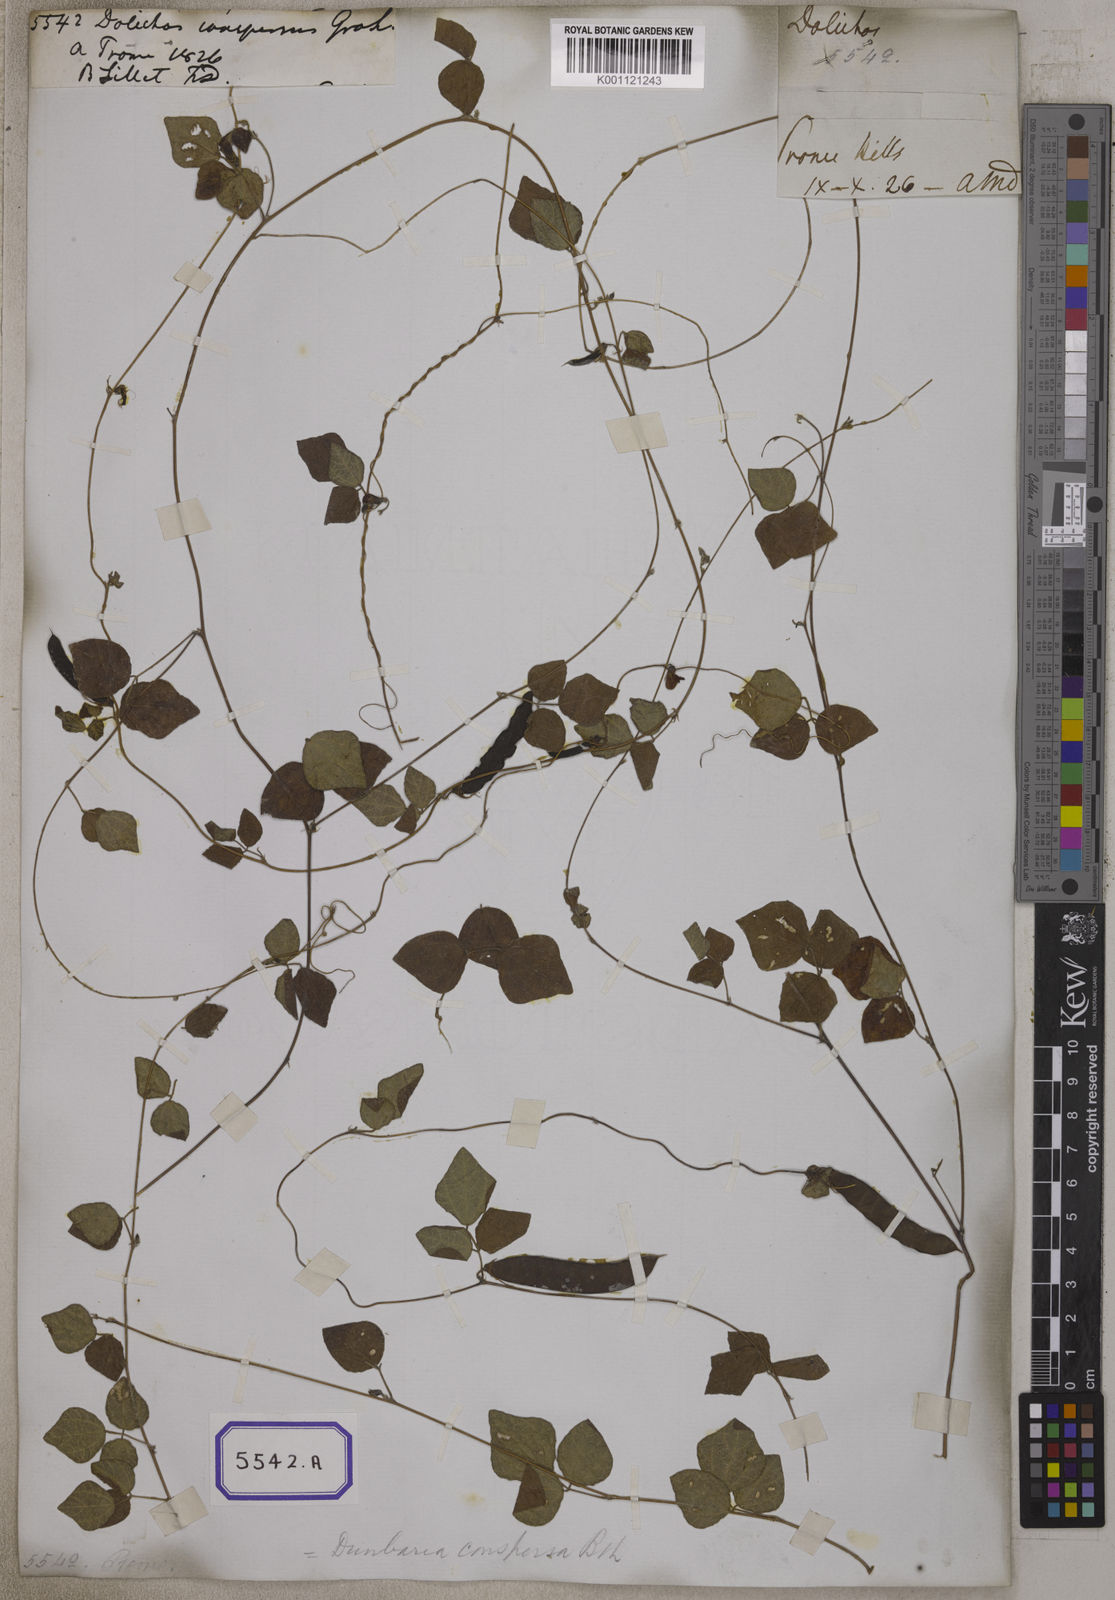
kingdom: Plantae
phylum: Tracheophyta
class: Magnoliopsida
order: Fabales
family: Fabaceae
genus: Dunbaria
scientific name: Dunbaria punctata
